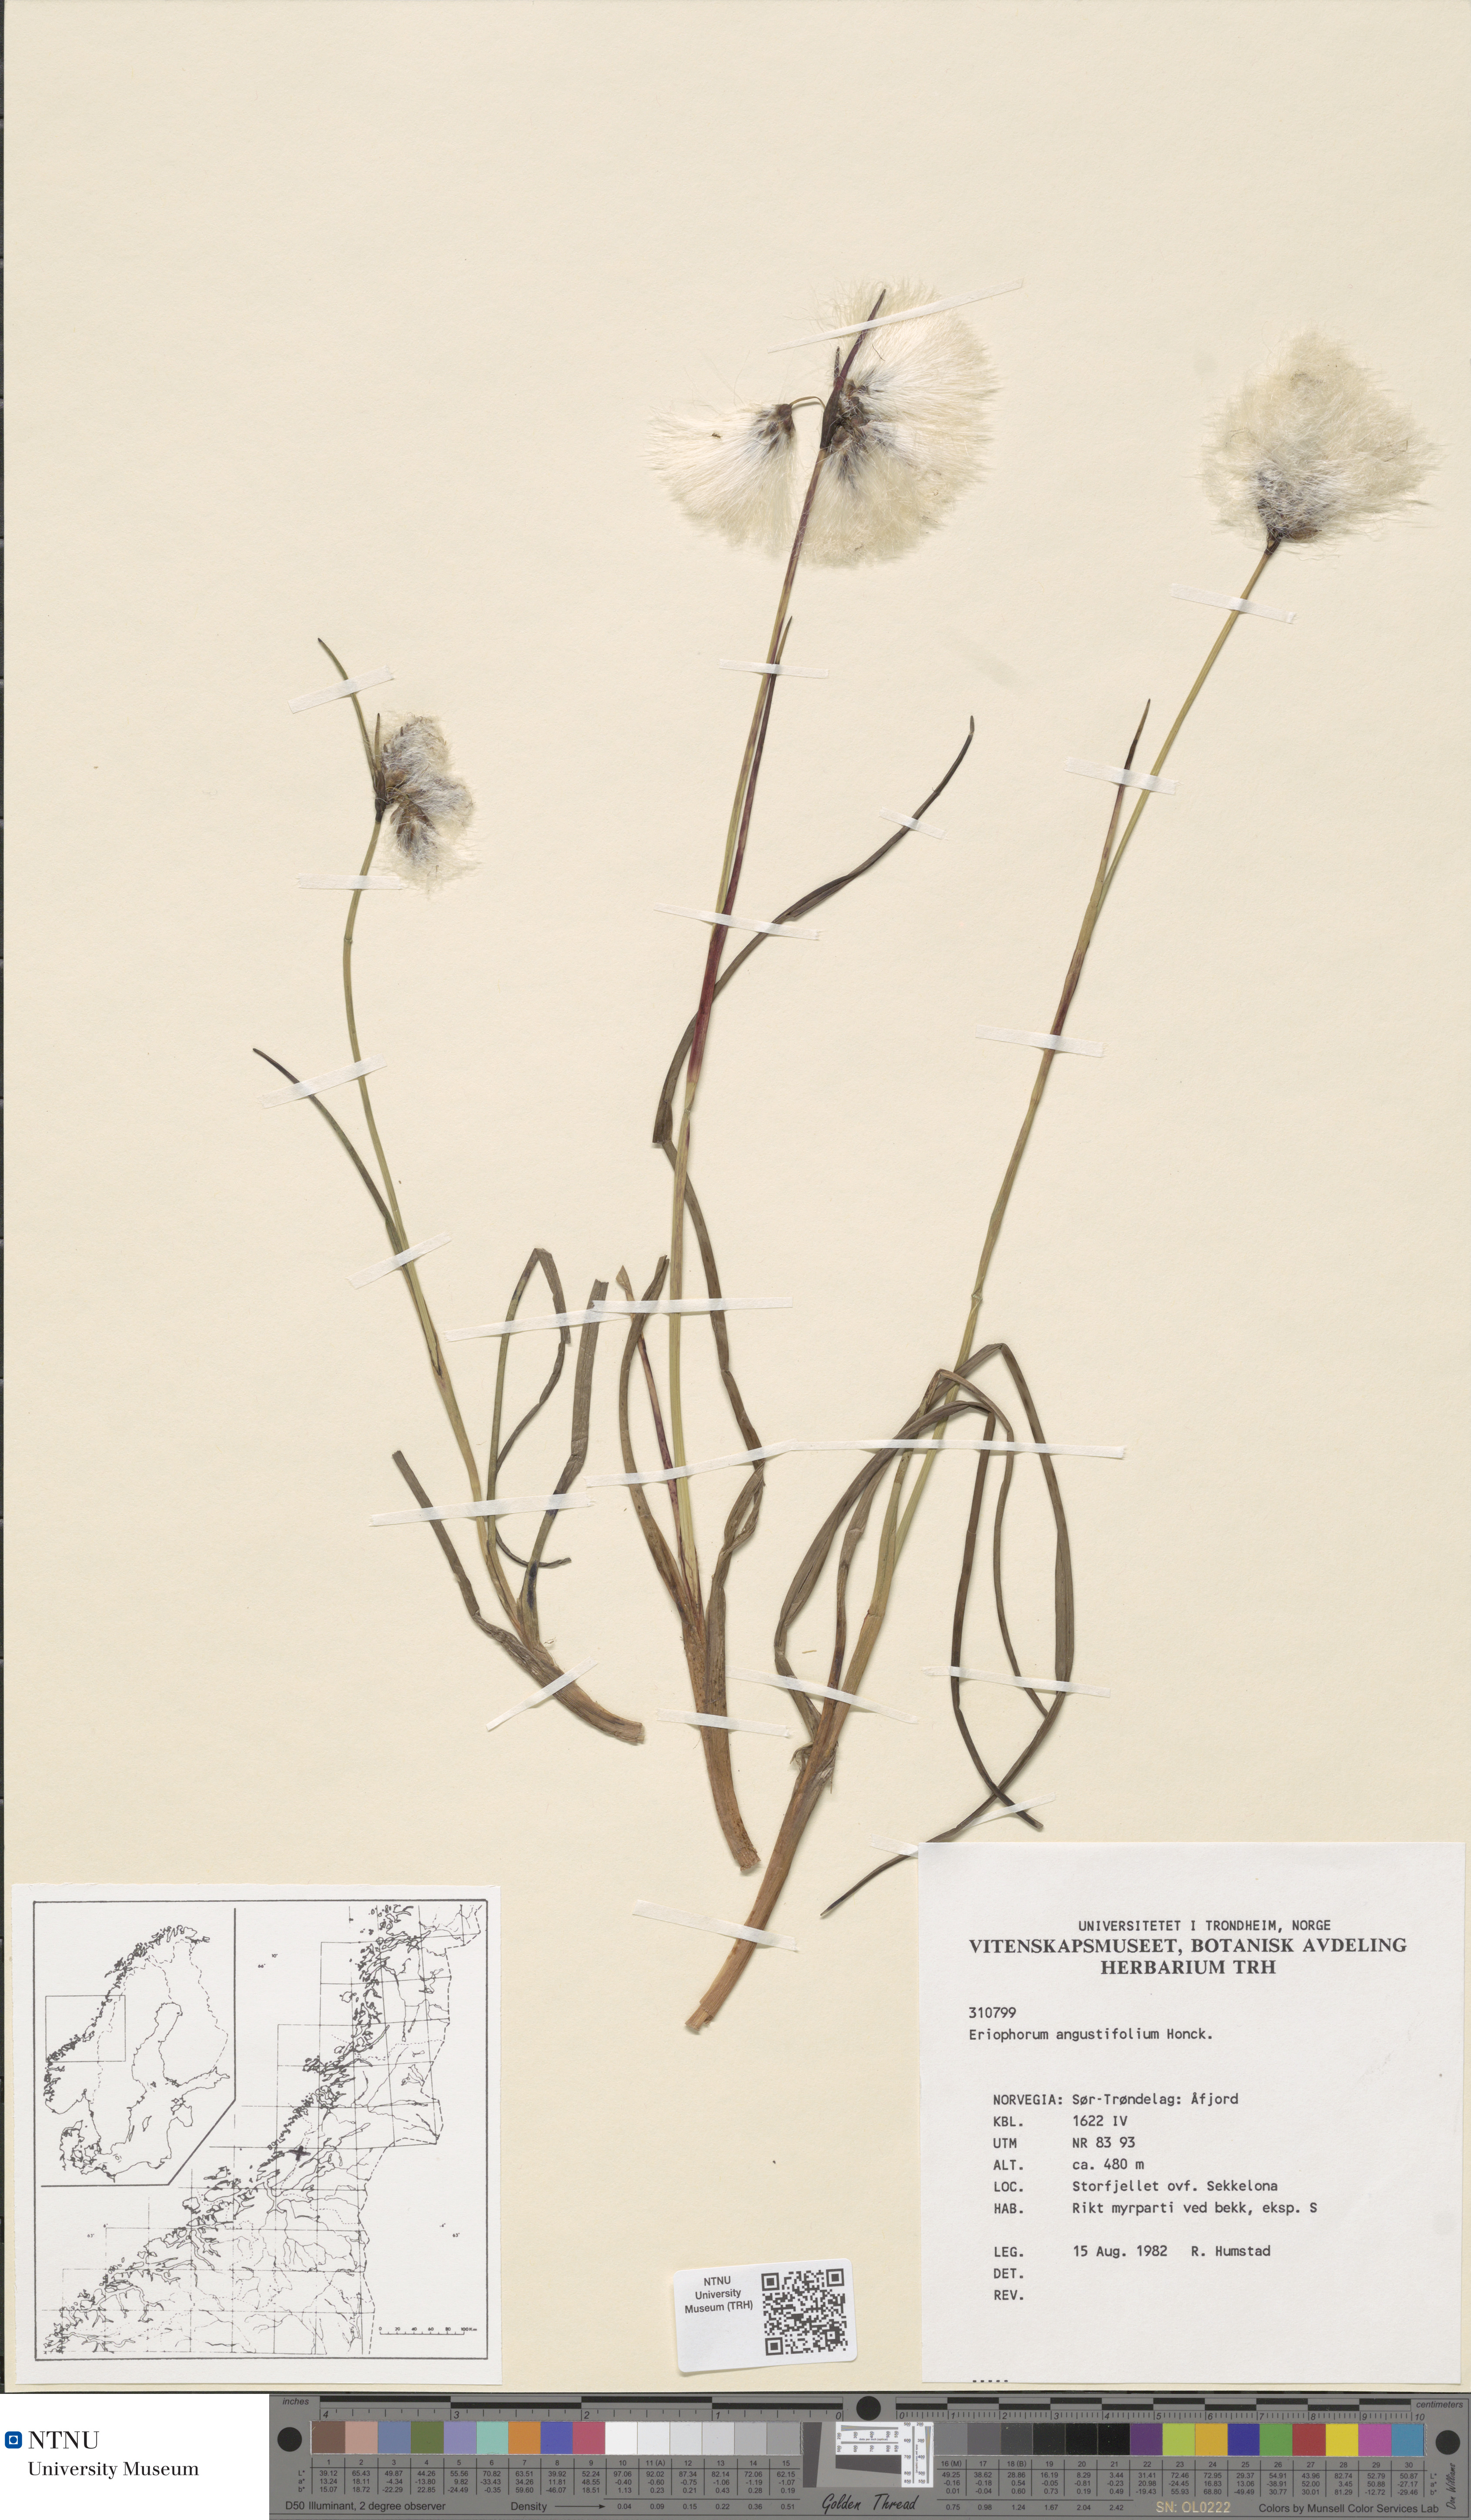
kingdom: Plantae
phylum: Tracheophyta
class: Liliopsida
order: Poales
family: Cyperaceae
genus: Eriophorum
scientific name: Eriophorum angustifolium
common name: Common cottongrass
